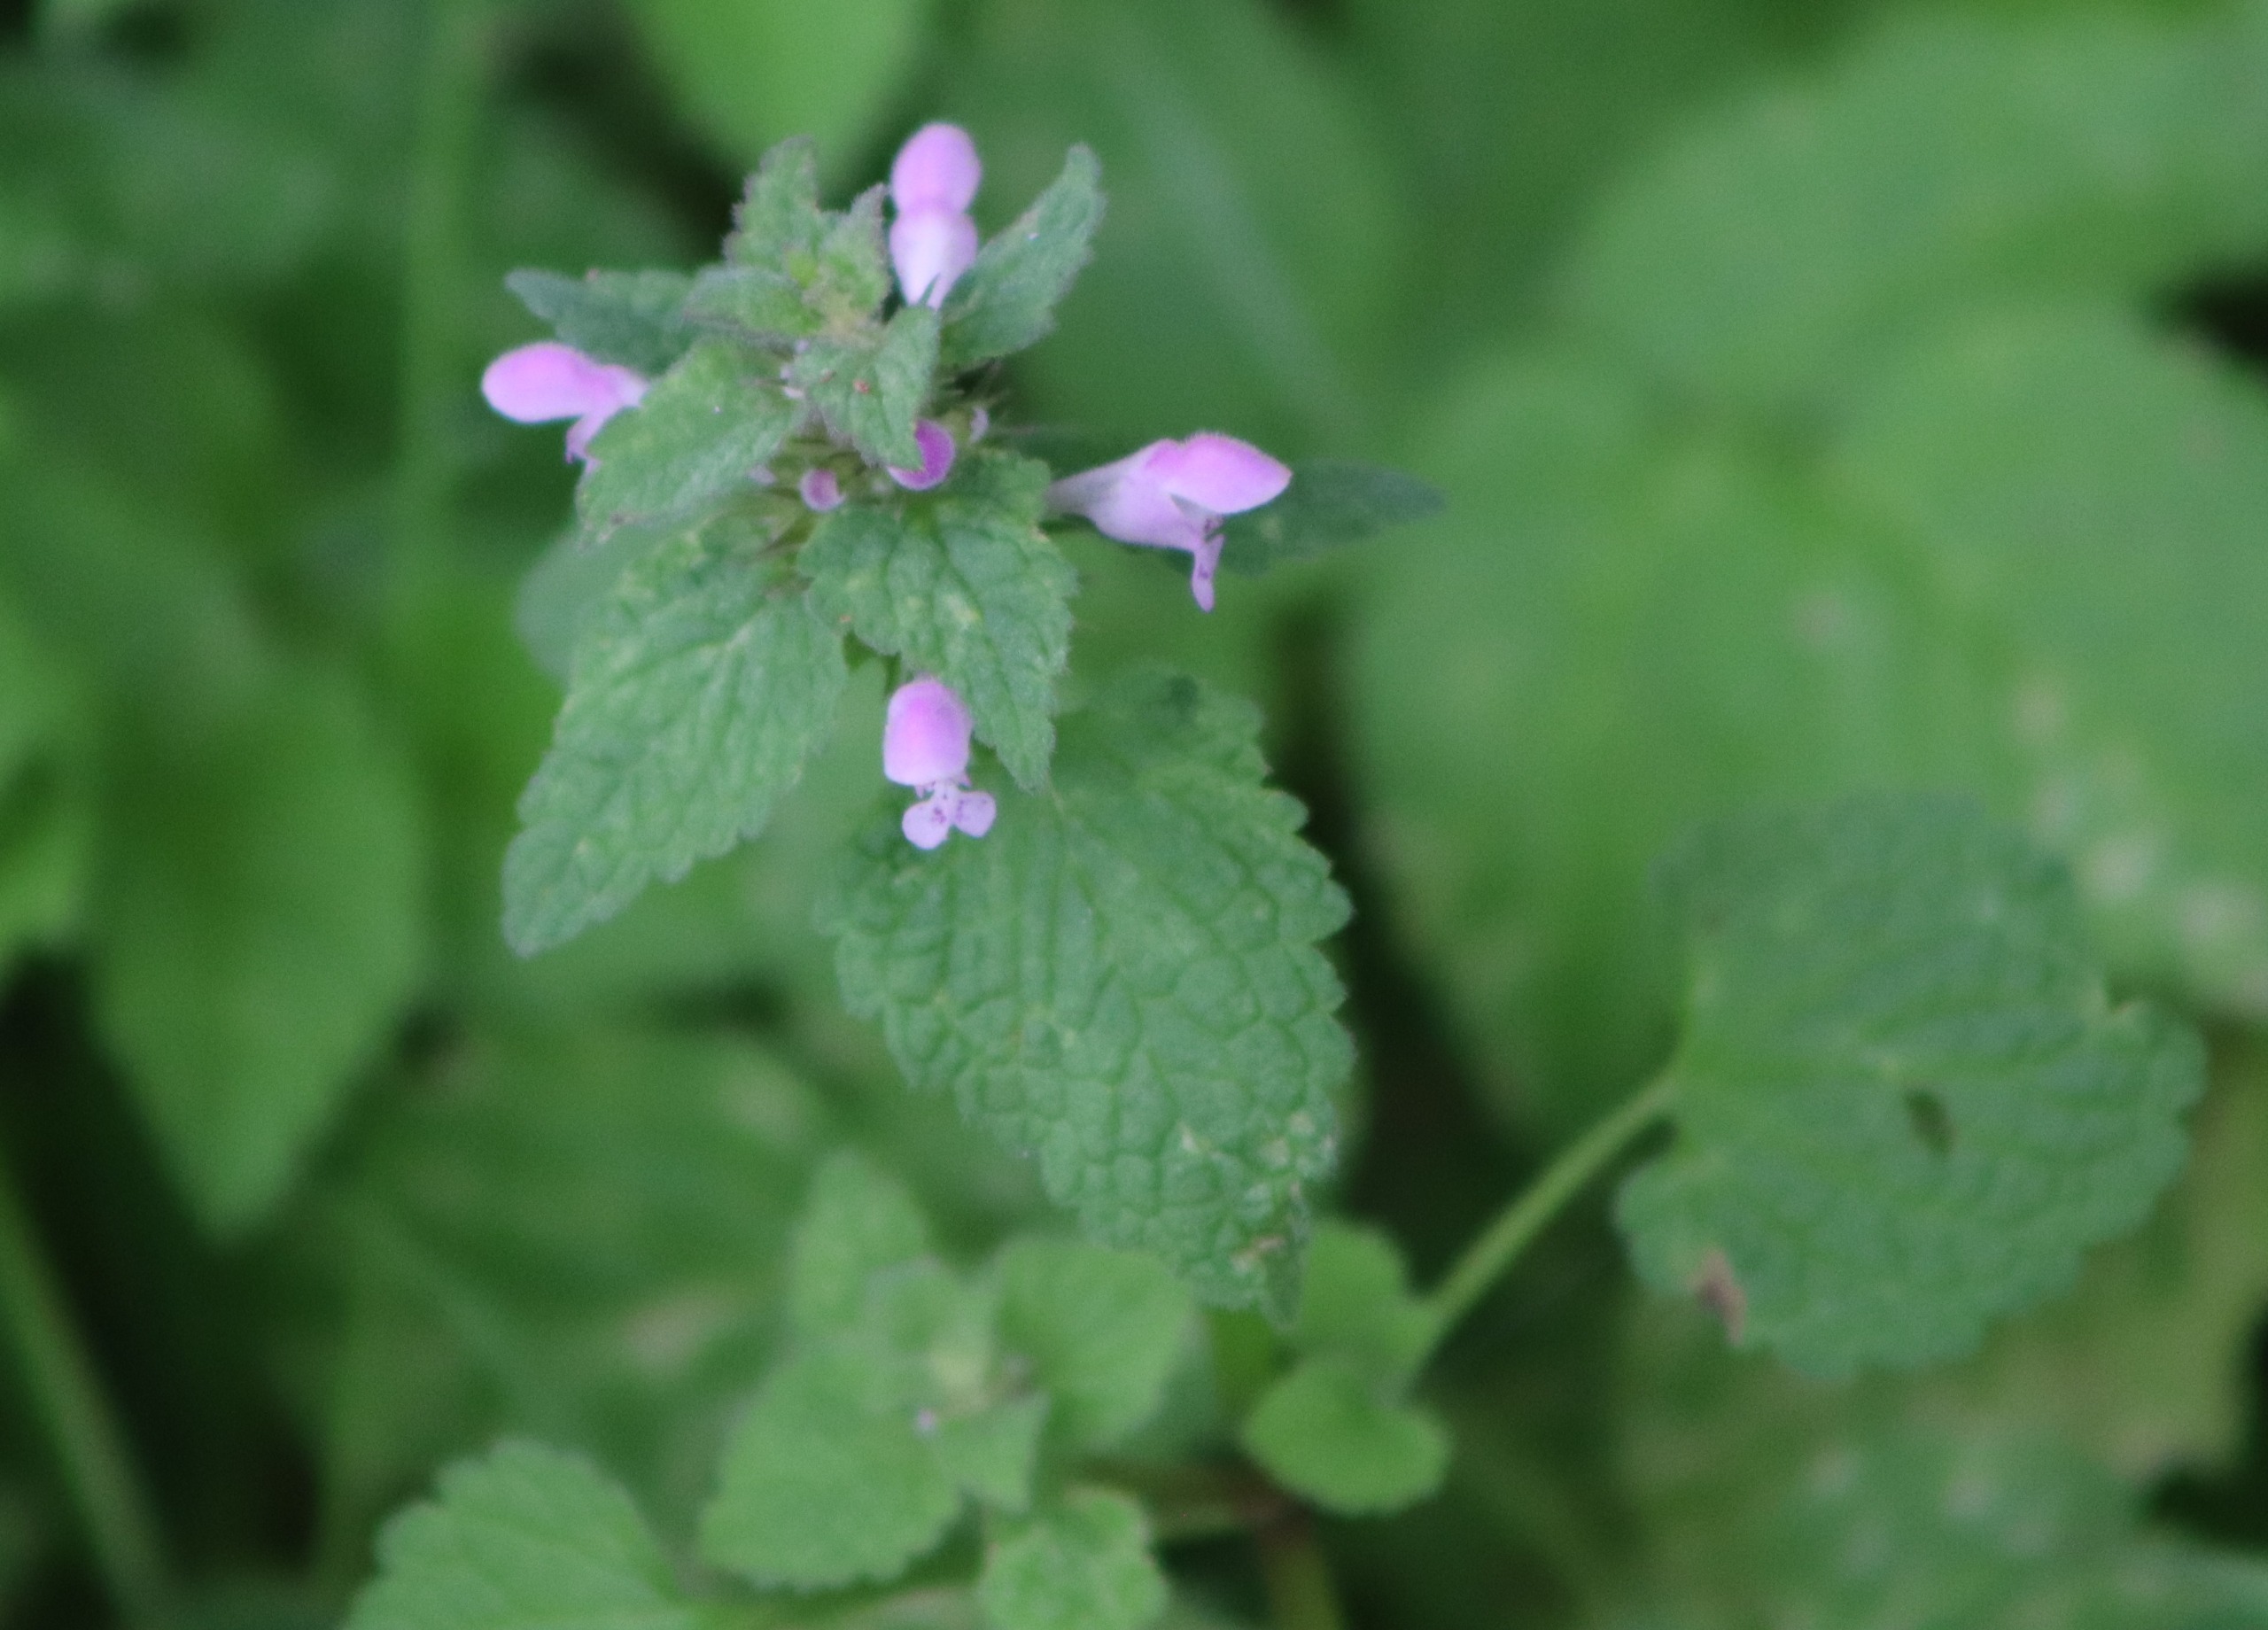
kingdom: Plantae
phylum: Tracheophyta
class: Magnoliopsida
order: Lamiales
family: Lamiaceae
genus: Lamium
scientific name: Lamium purpureum
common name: Rød tvetand
